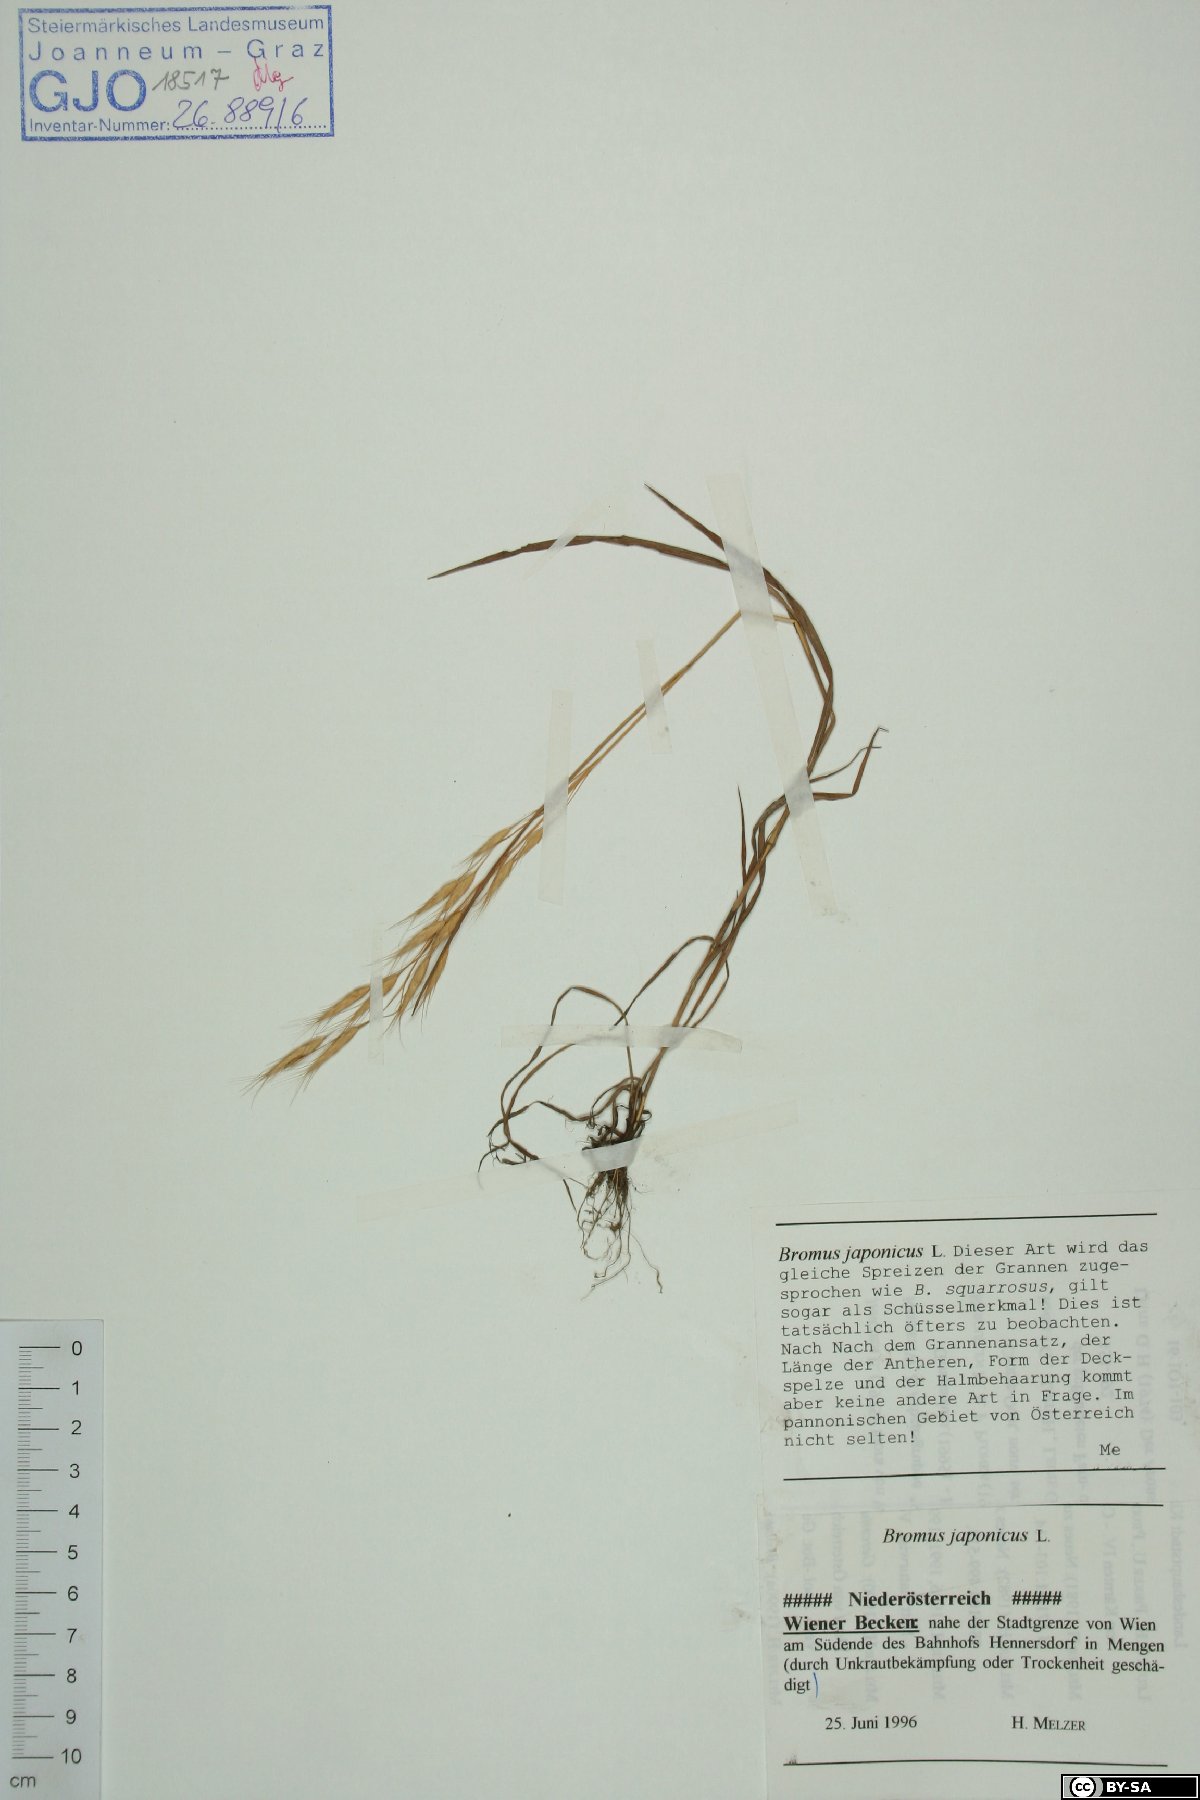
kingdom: Plantae
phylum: Tracheophyta
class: Liliopsida
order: Poales
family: Poaceae
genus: Bromus
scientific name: Bromus japonicus
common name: Japanese brome
